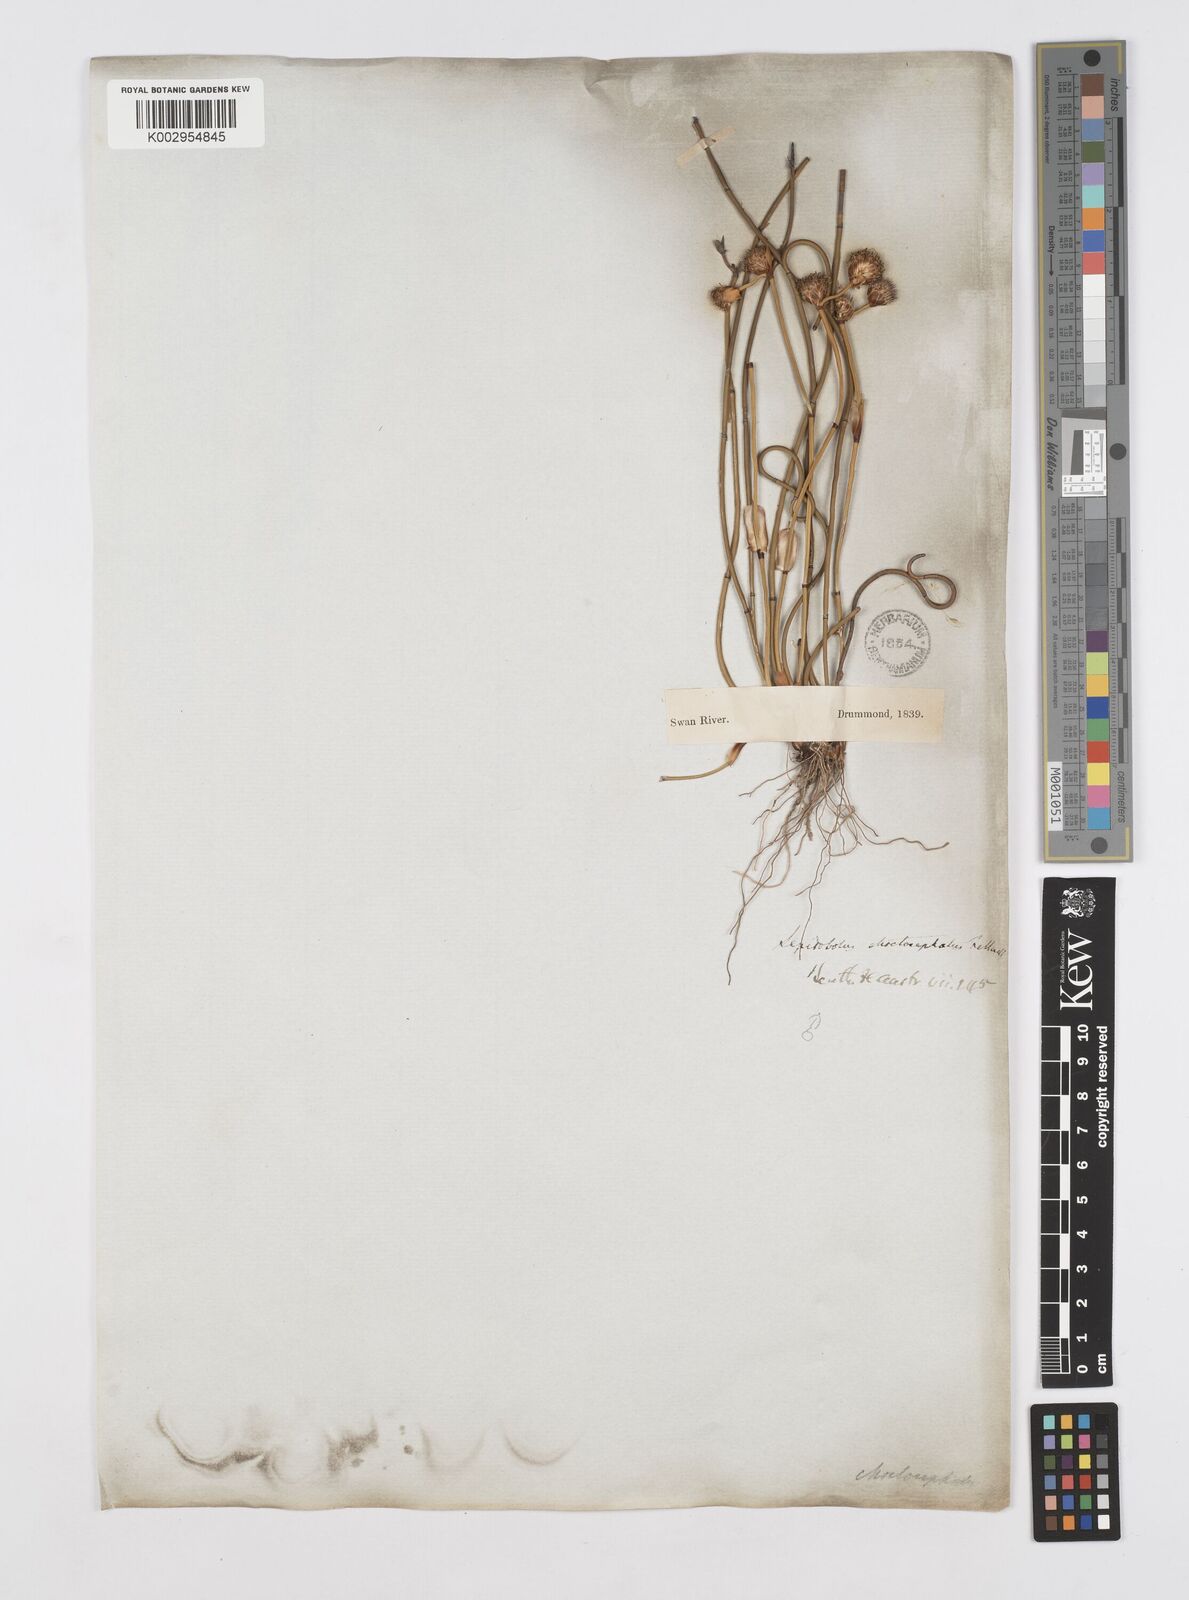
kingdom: Plantae
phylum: Tracheophyta
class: Liliopsida
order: Poales
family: Restionaceae
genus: Lepidobolus
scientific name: Lepidobolus chaetocephalus
